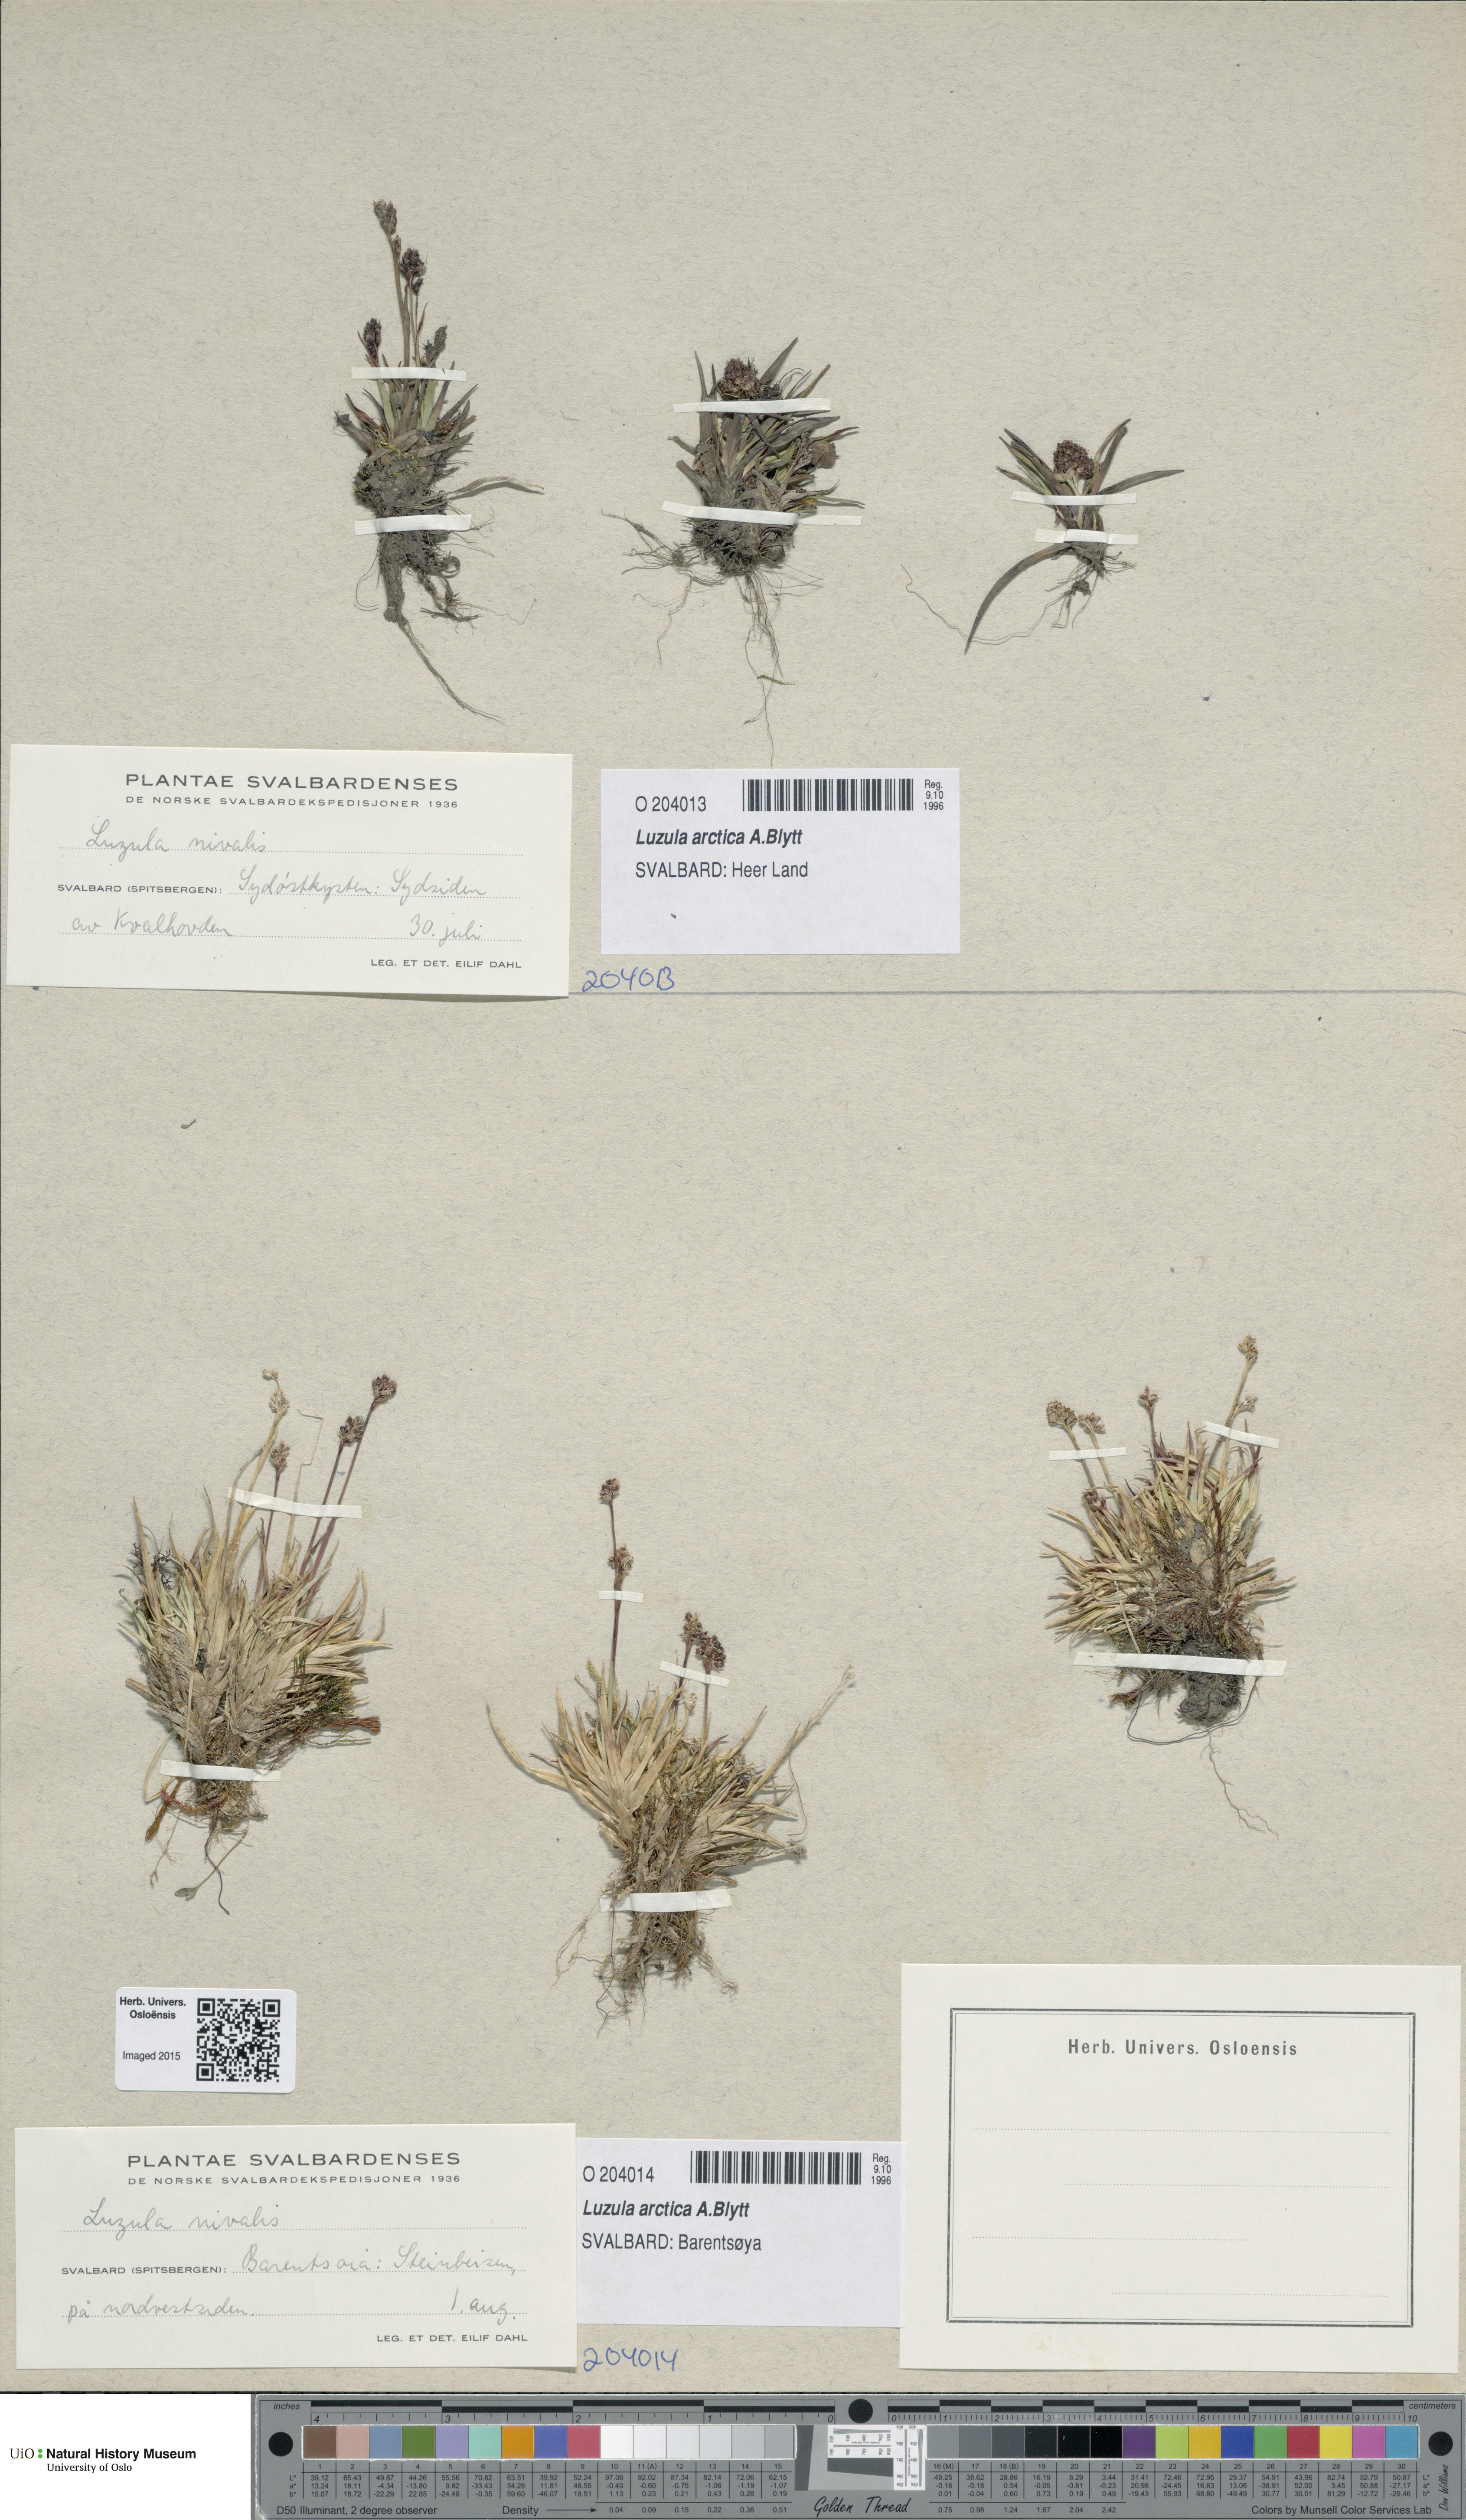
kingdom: Plantae
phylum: Tracheophyta
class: Liliopsida
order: Poales
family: Juncaceae
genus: Luzula
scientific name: Luzula nivalis
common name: Arctic woodrush
